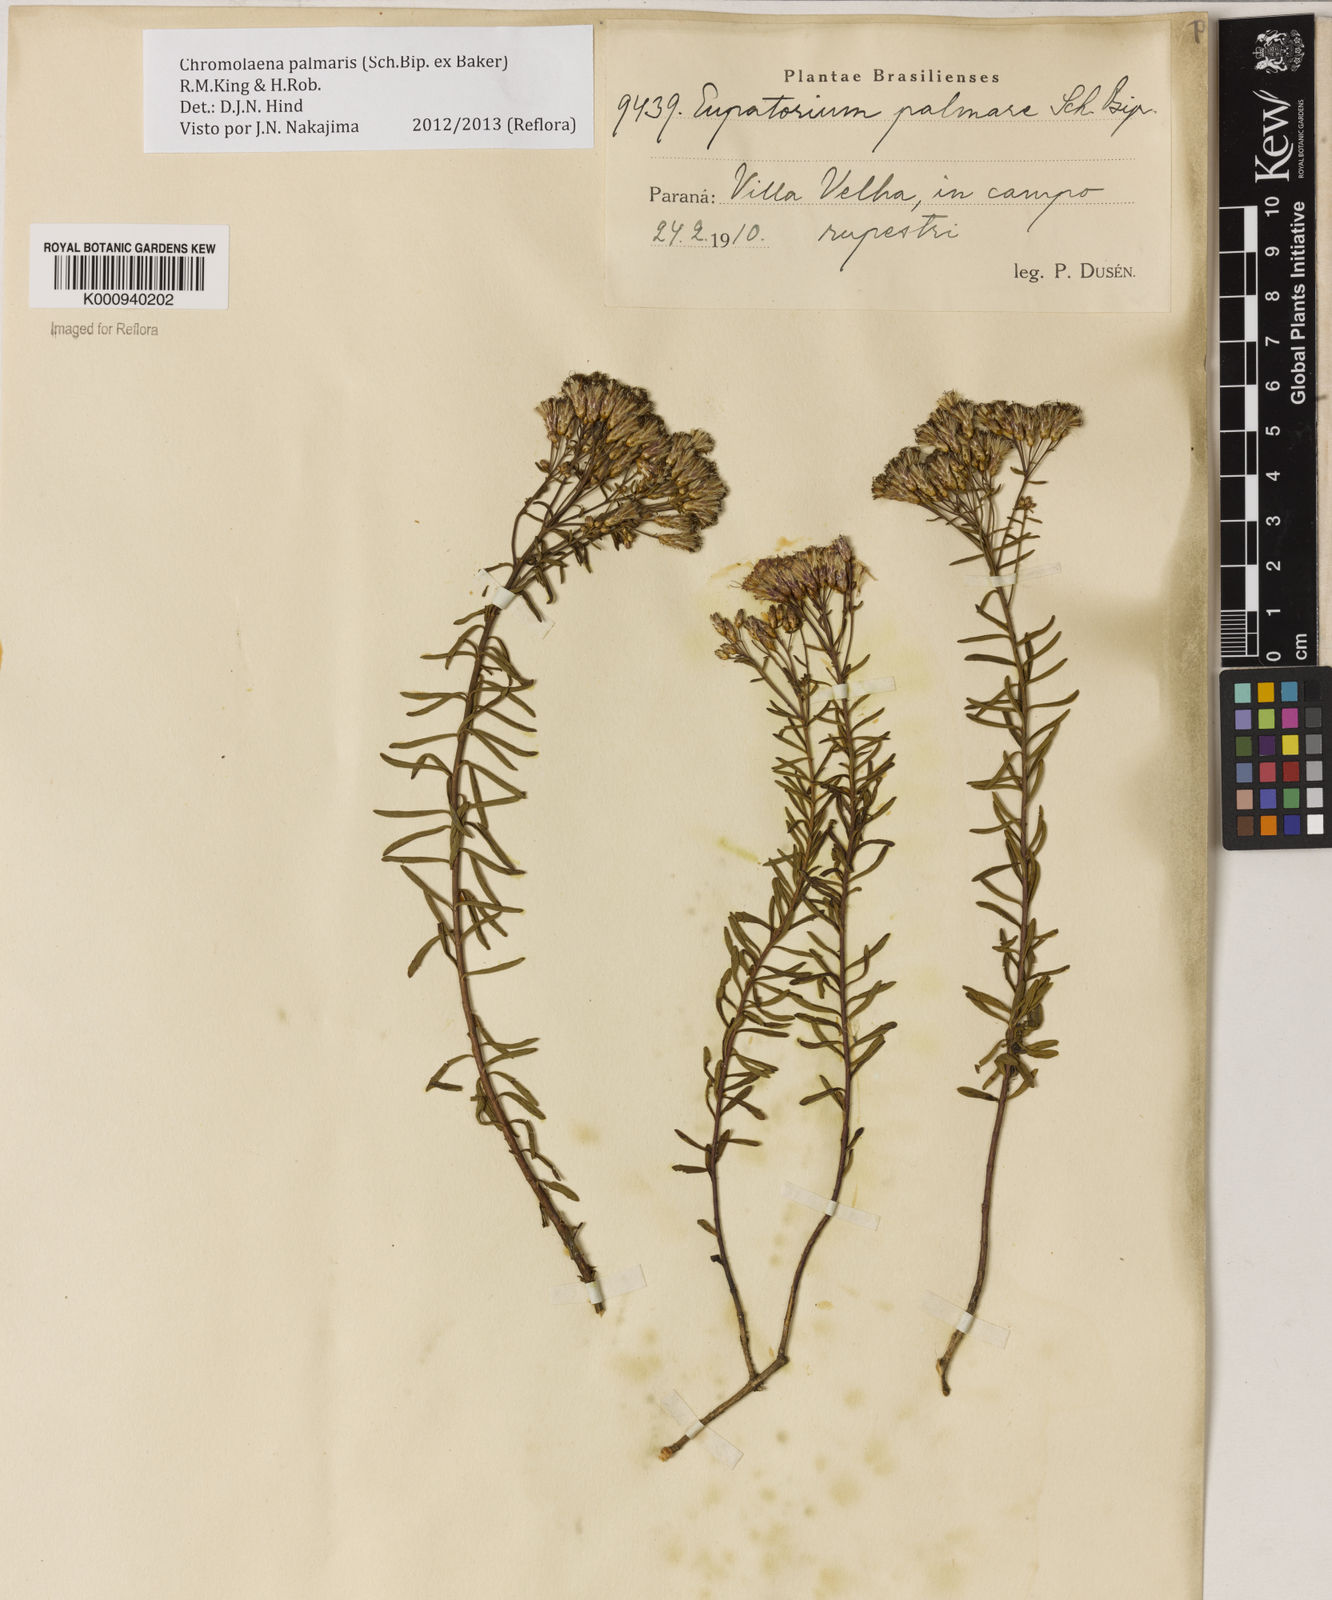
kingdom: Plantae
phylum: Tracheophyta
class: Magnoliopsida
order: Asterales
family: Asteraceae
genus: Chromolaena
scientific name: Chromolaena palmaris
